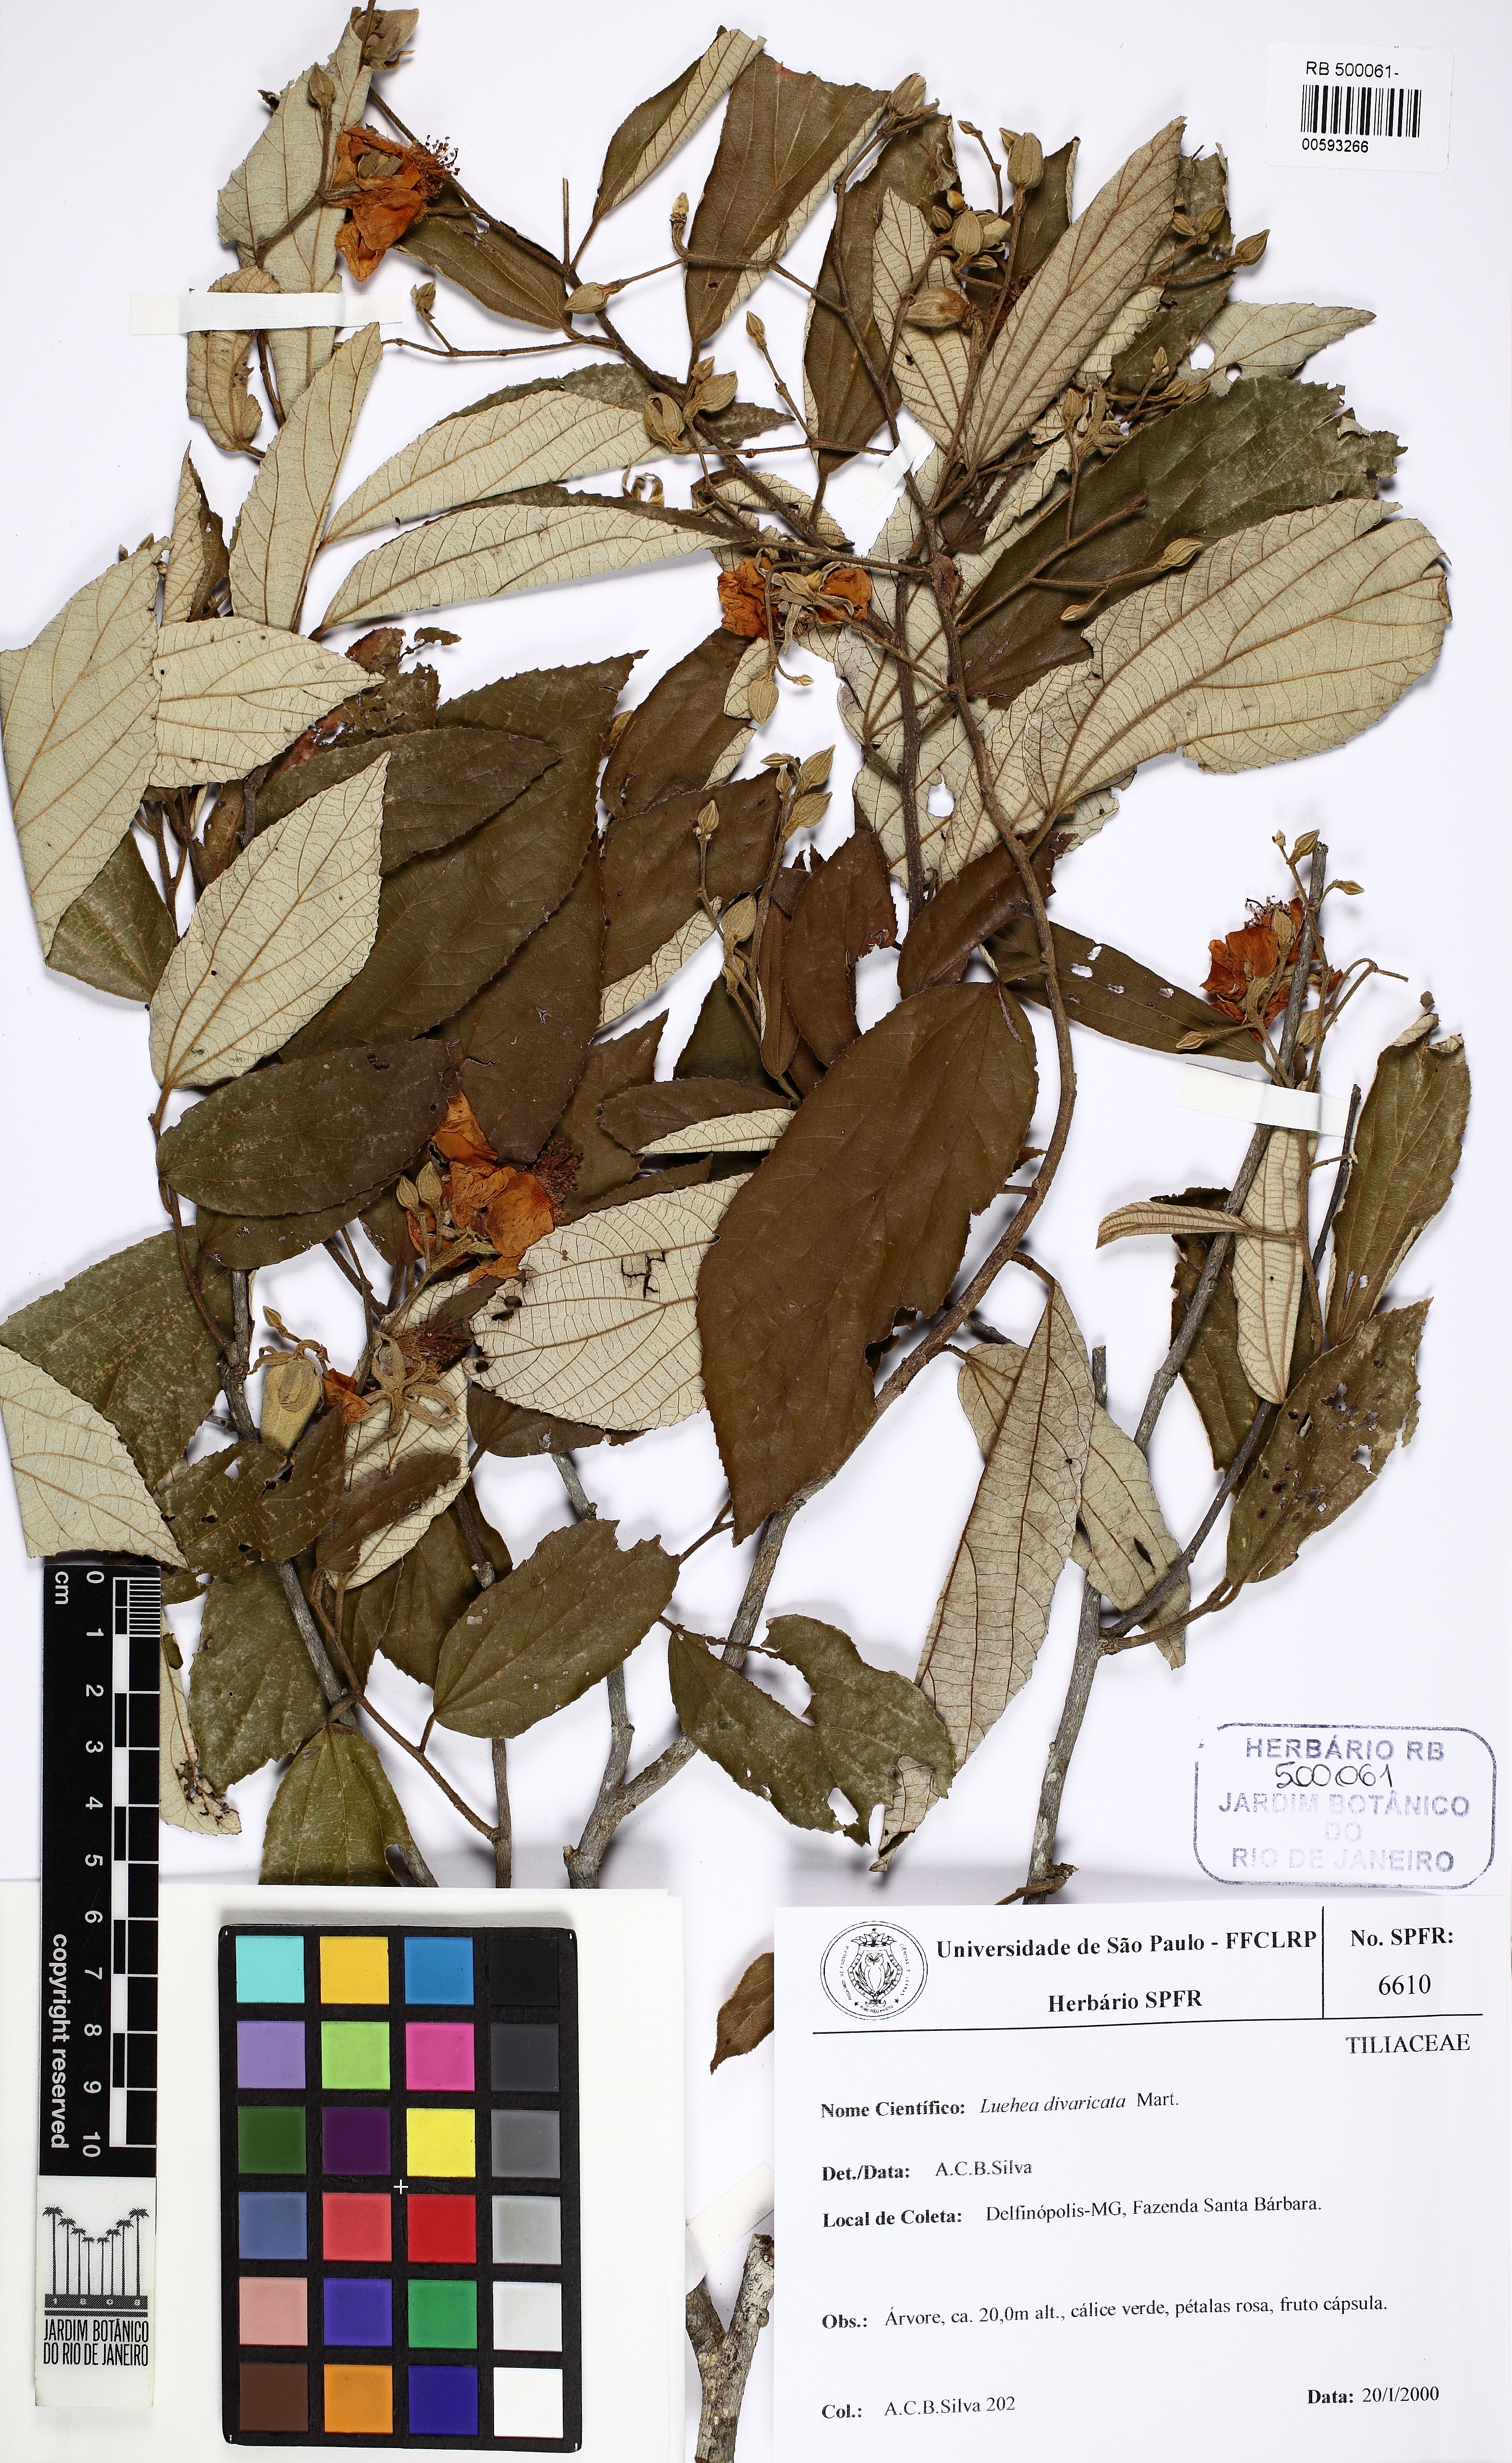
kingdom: Plantae
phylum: Tracheophyta
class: Magnoliopsida
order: Malvales
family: Malvaceae
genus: Luehea
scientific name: Luehea divaricata
